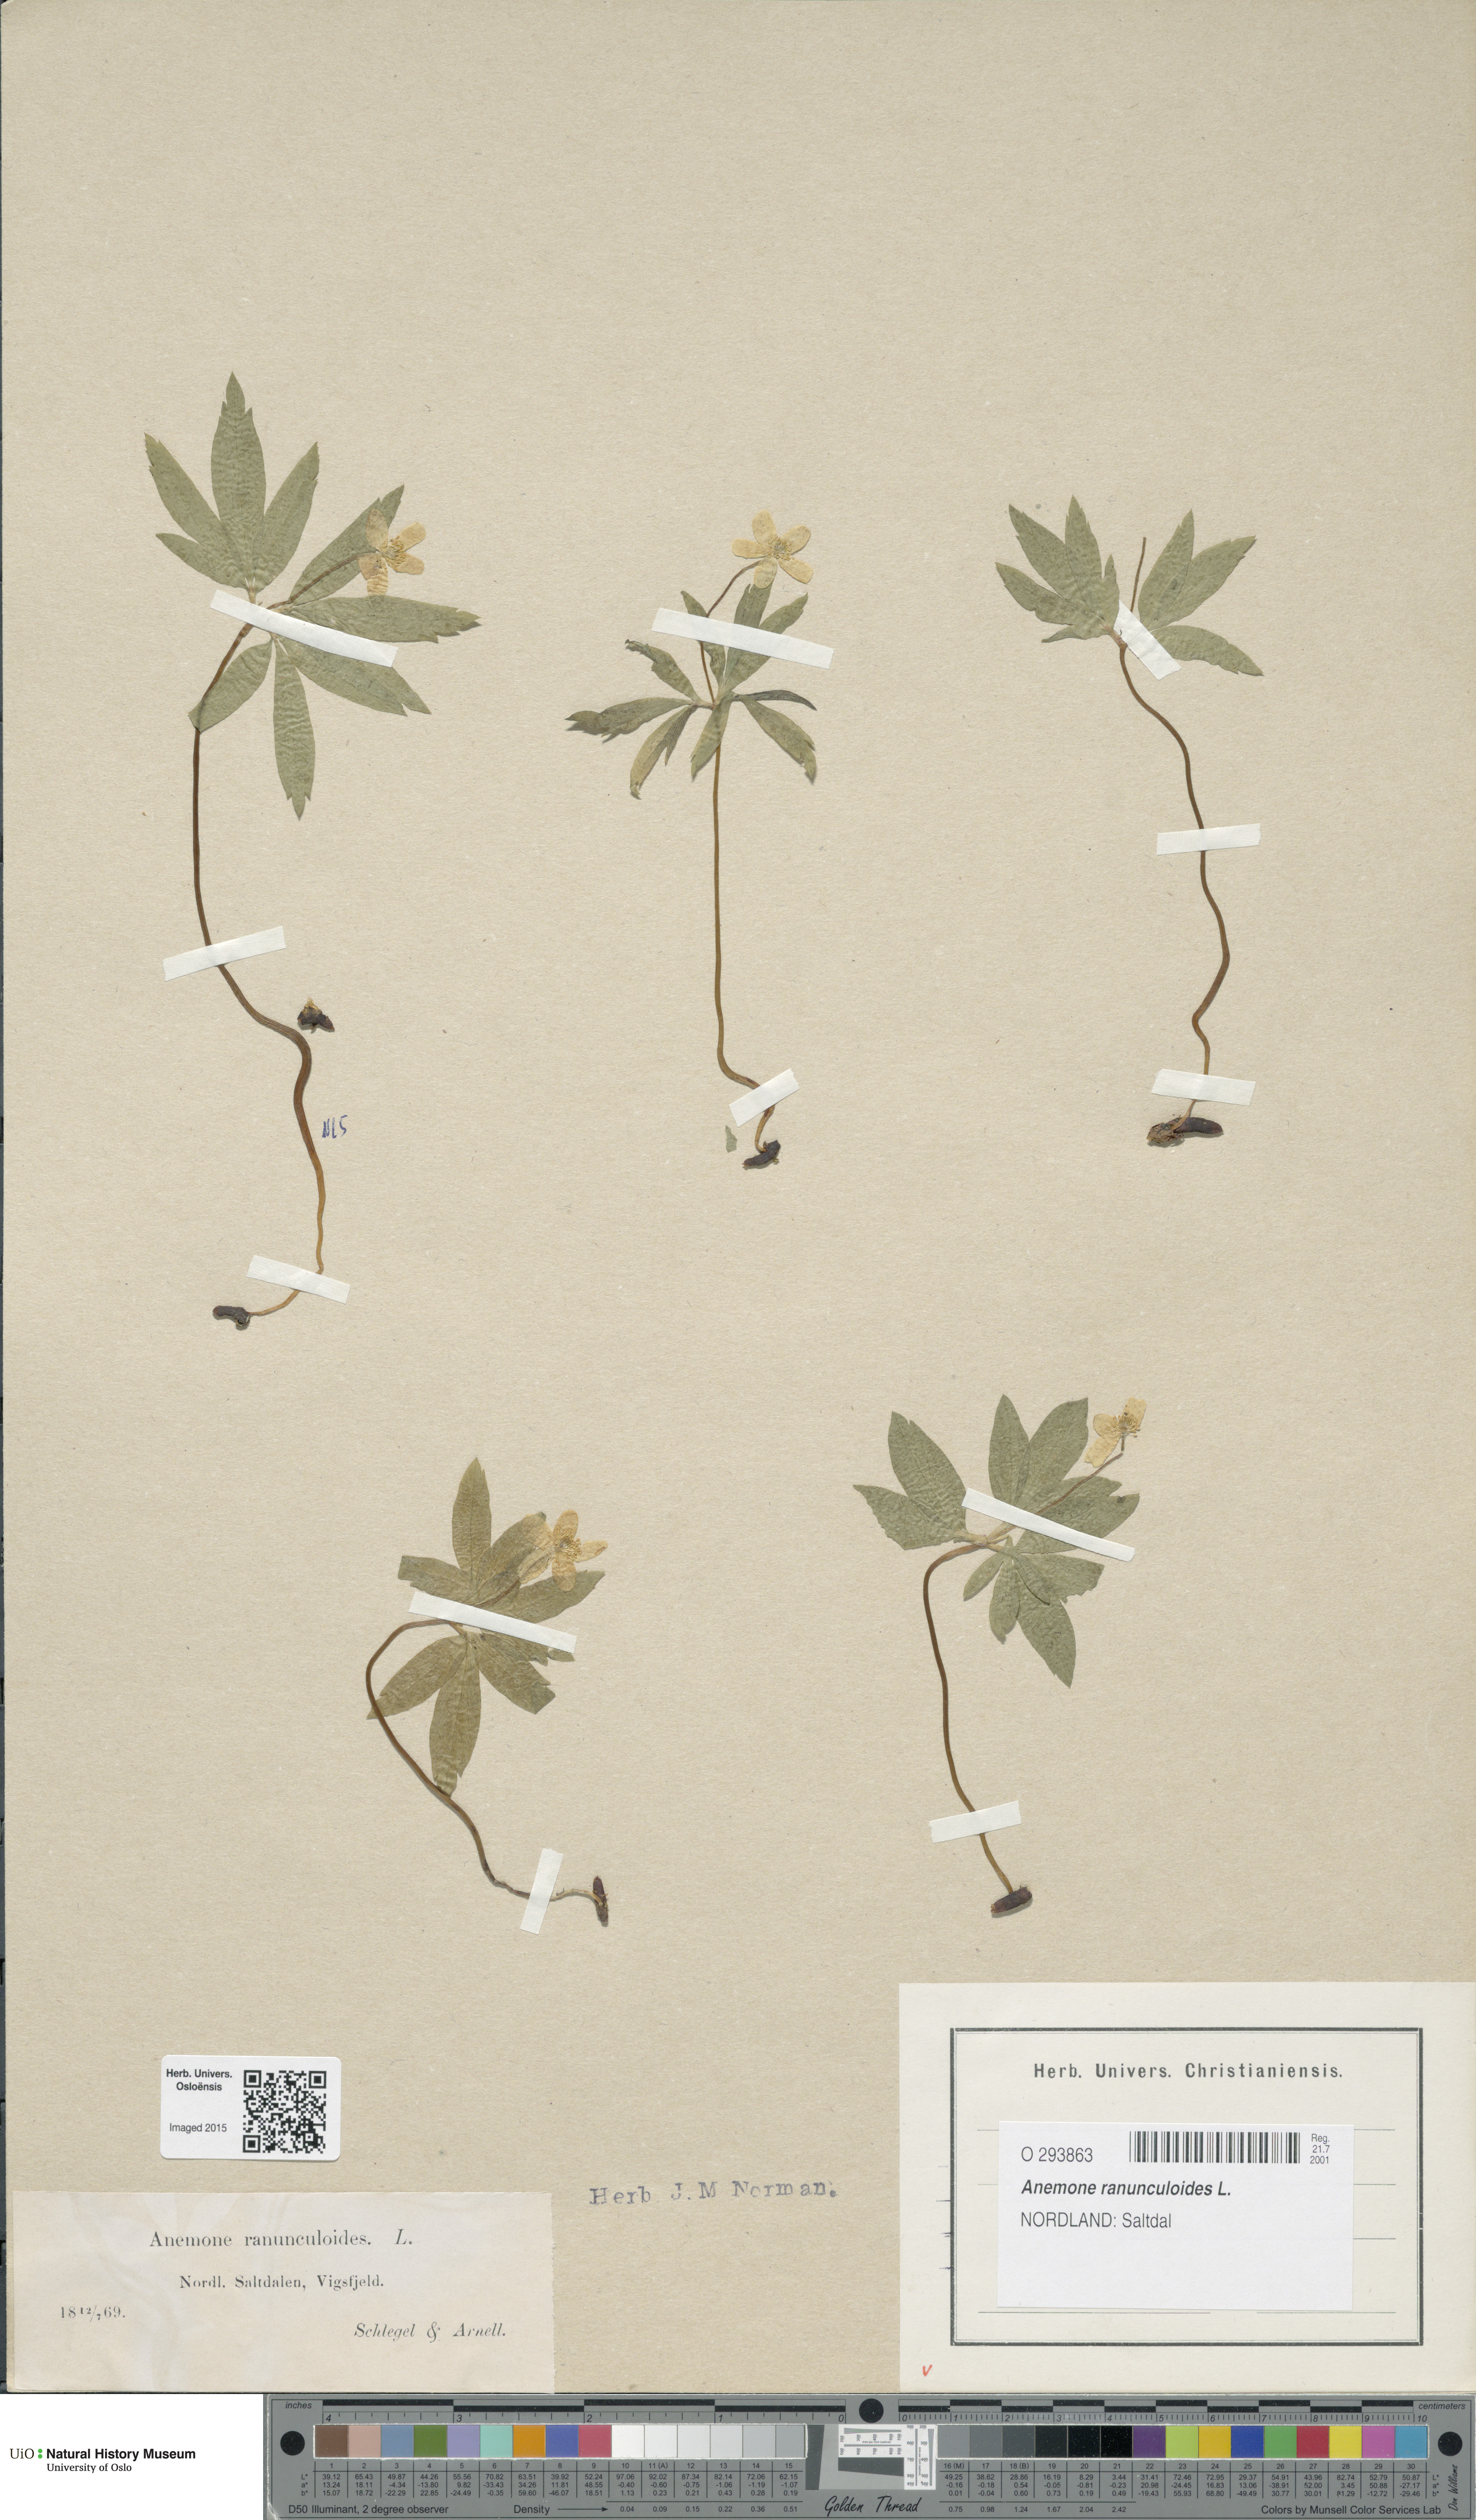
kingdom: Plantae
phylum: Tracheophyta
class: Magnoliopsida
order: Ranunculales
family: Ranunculaceae
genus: Anemone
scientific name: Anemone ranunculoides
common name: Yellow anemone
